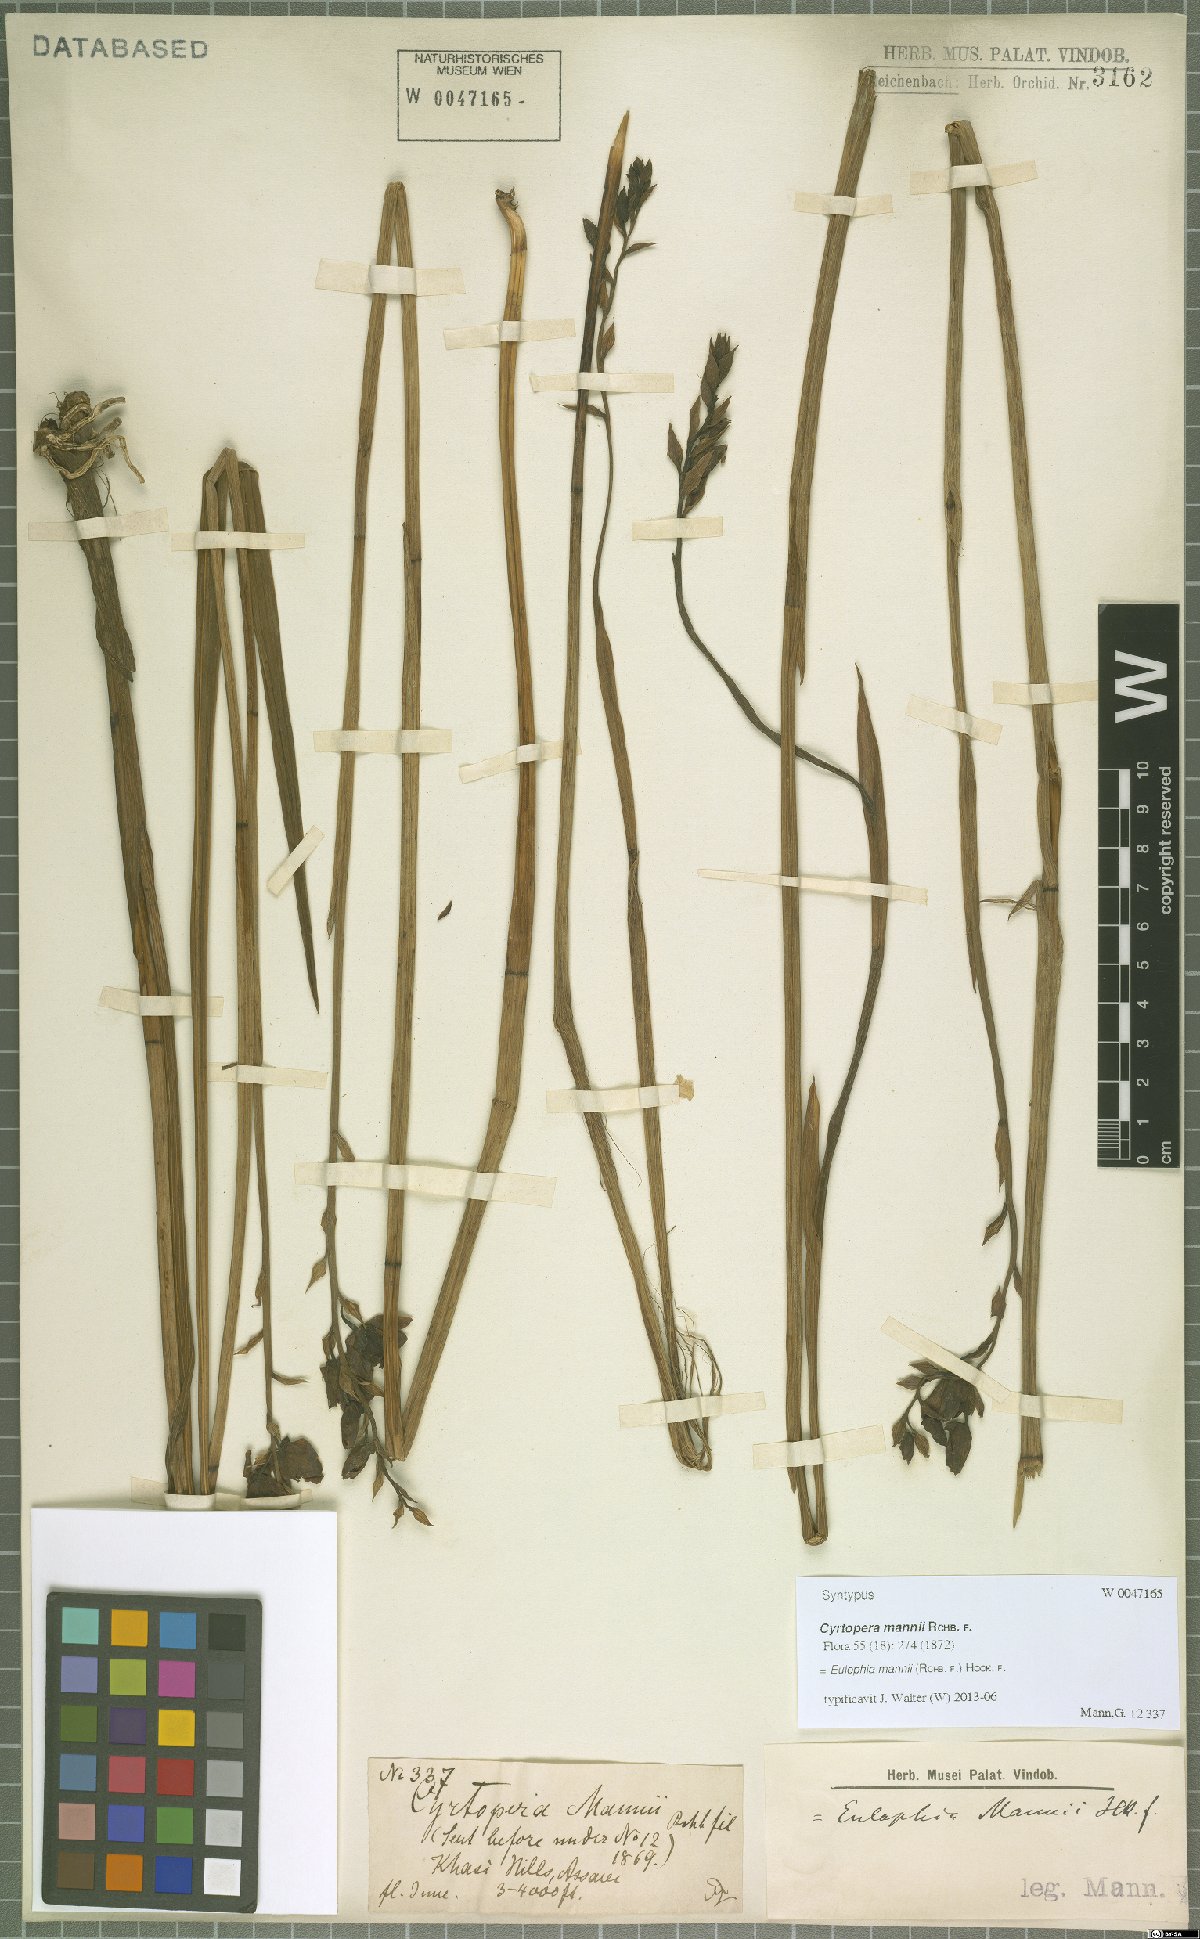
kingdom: Plantae
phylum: Tracheophyta
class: Liliopsida
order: Asparagales
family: Orchidaceae
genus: Eulophia
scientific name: Eulophia mannii
